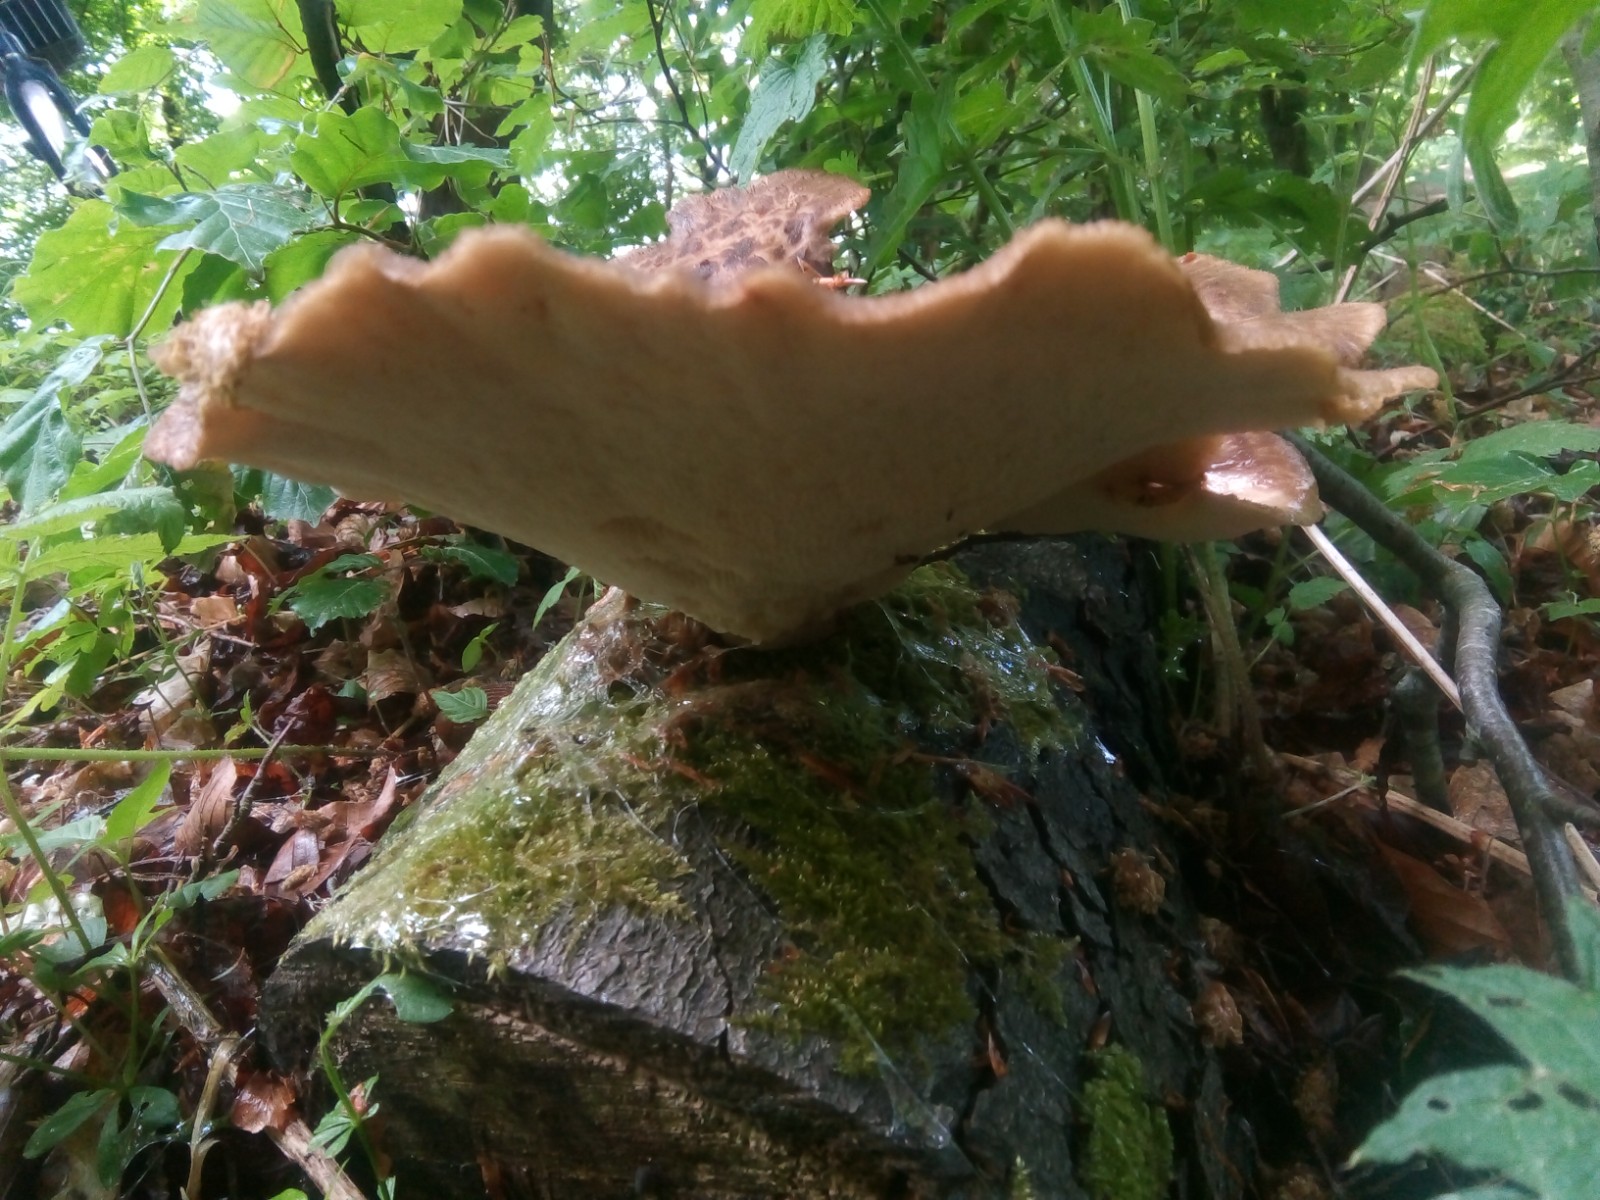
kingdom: Fungi
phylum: Basidiomycota
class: Agaricomycetes
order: Polyporales
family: Polyporaceae
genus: Polyporus
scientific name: Polyporus tuberaster
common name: knoldet stilkporesvamp
